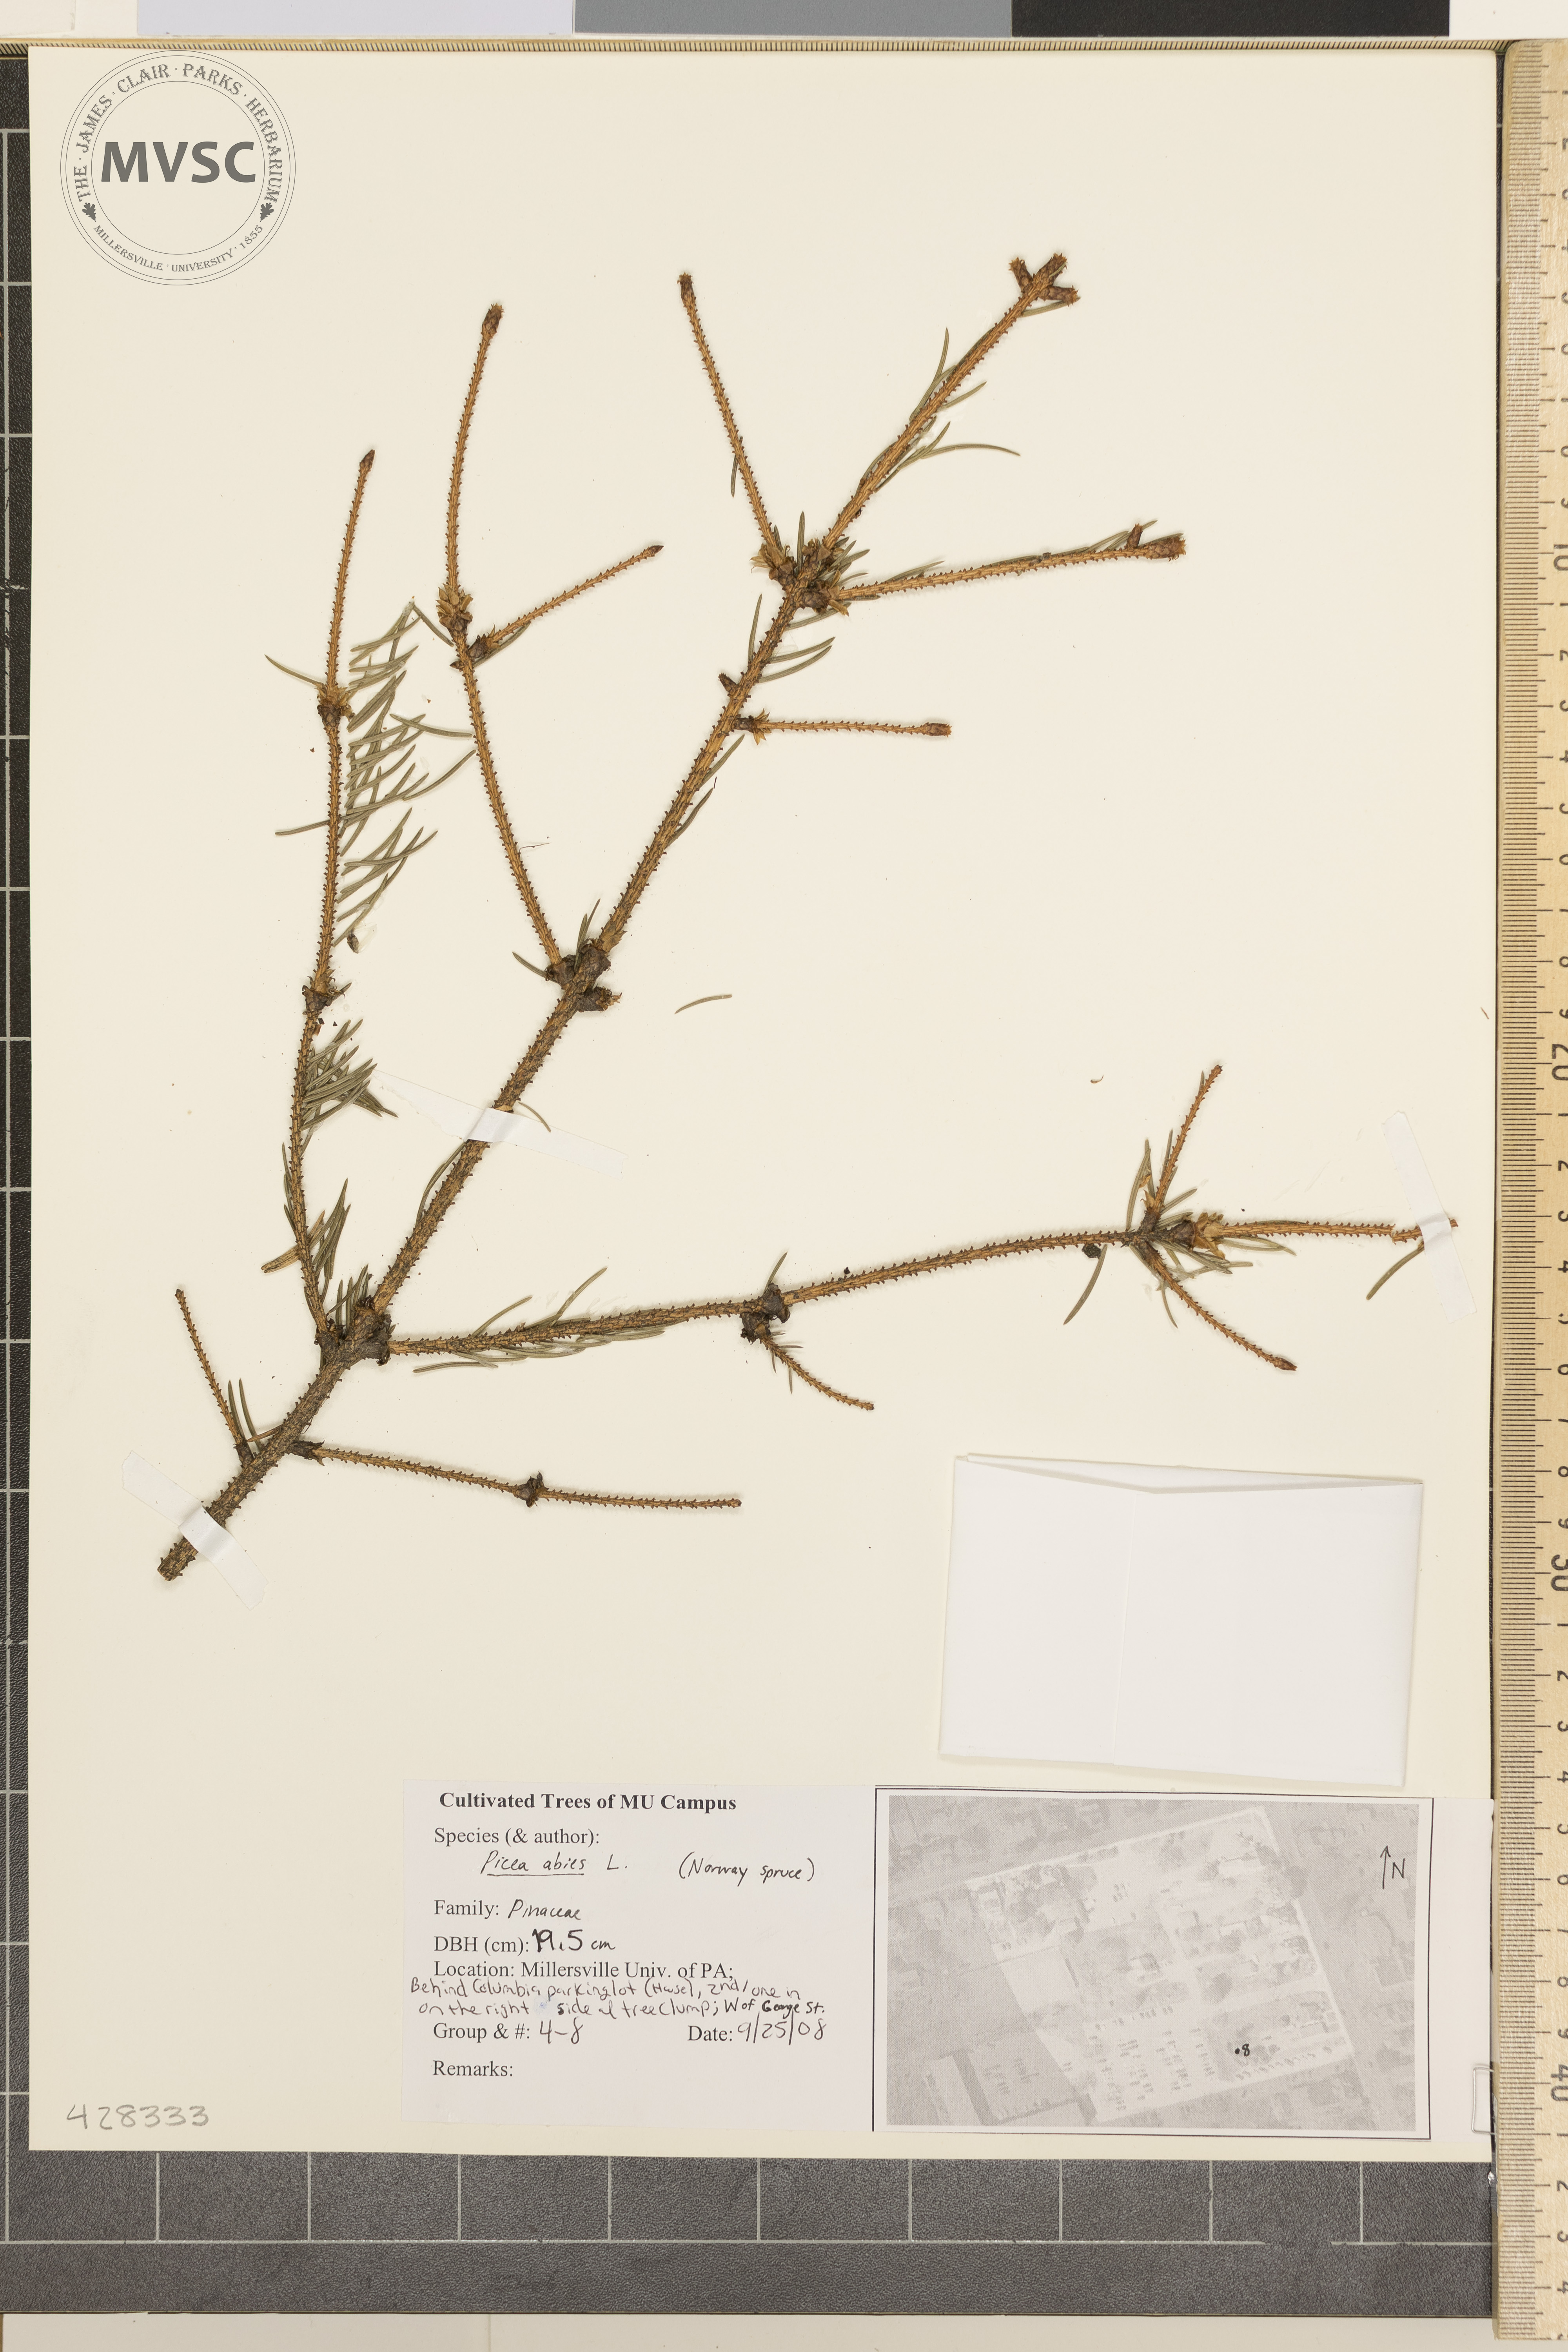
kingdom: Plantae
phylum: Tracheophyta
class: Pinopsida
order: Pinales
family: Pinaceae
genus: Picea
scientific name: Picea abies
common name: Norway Spruce
